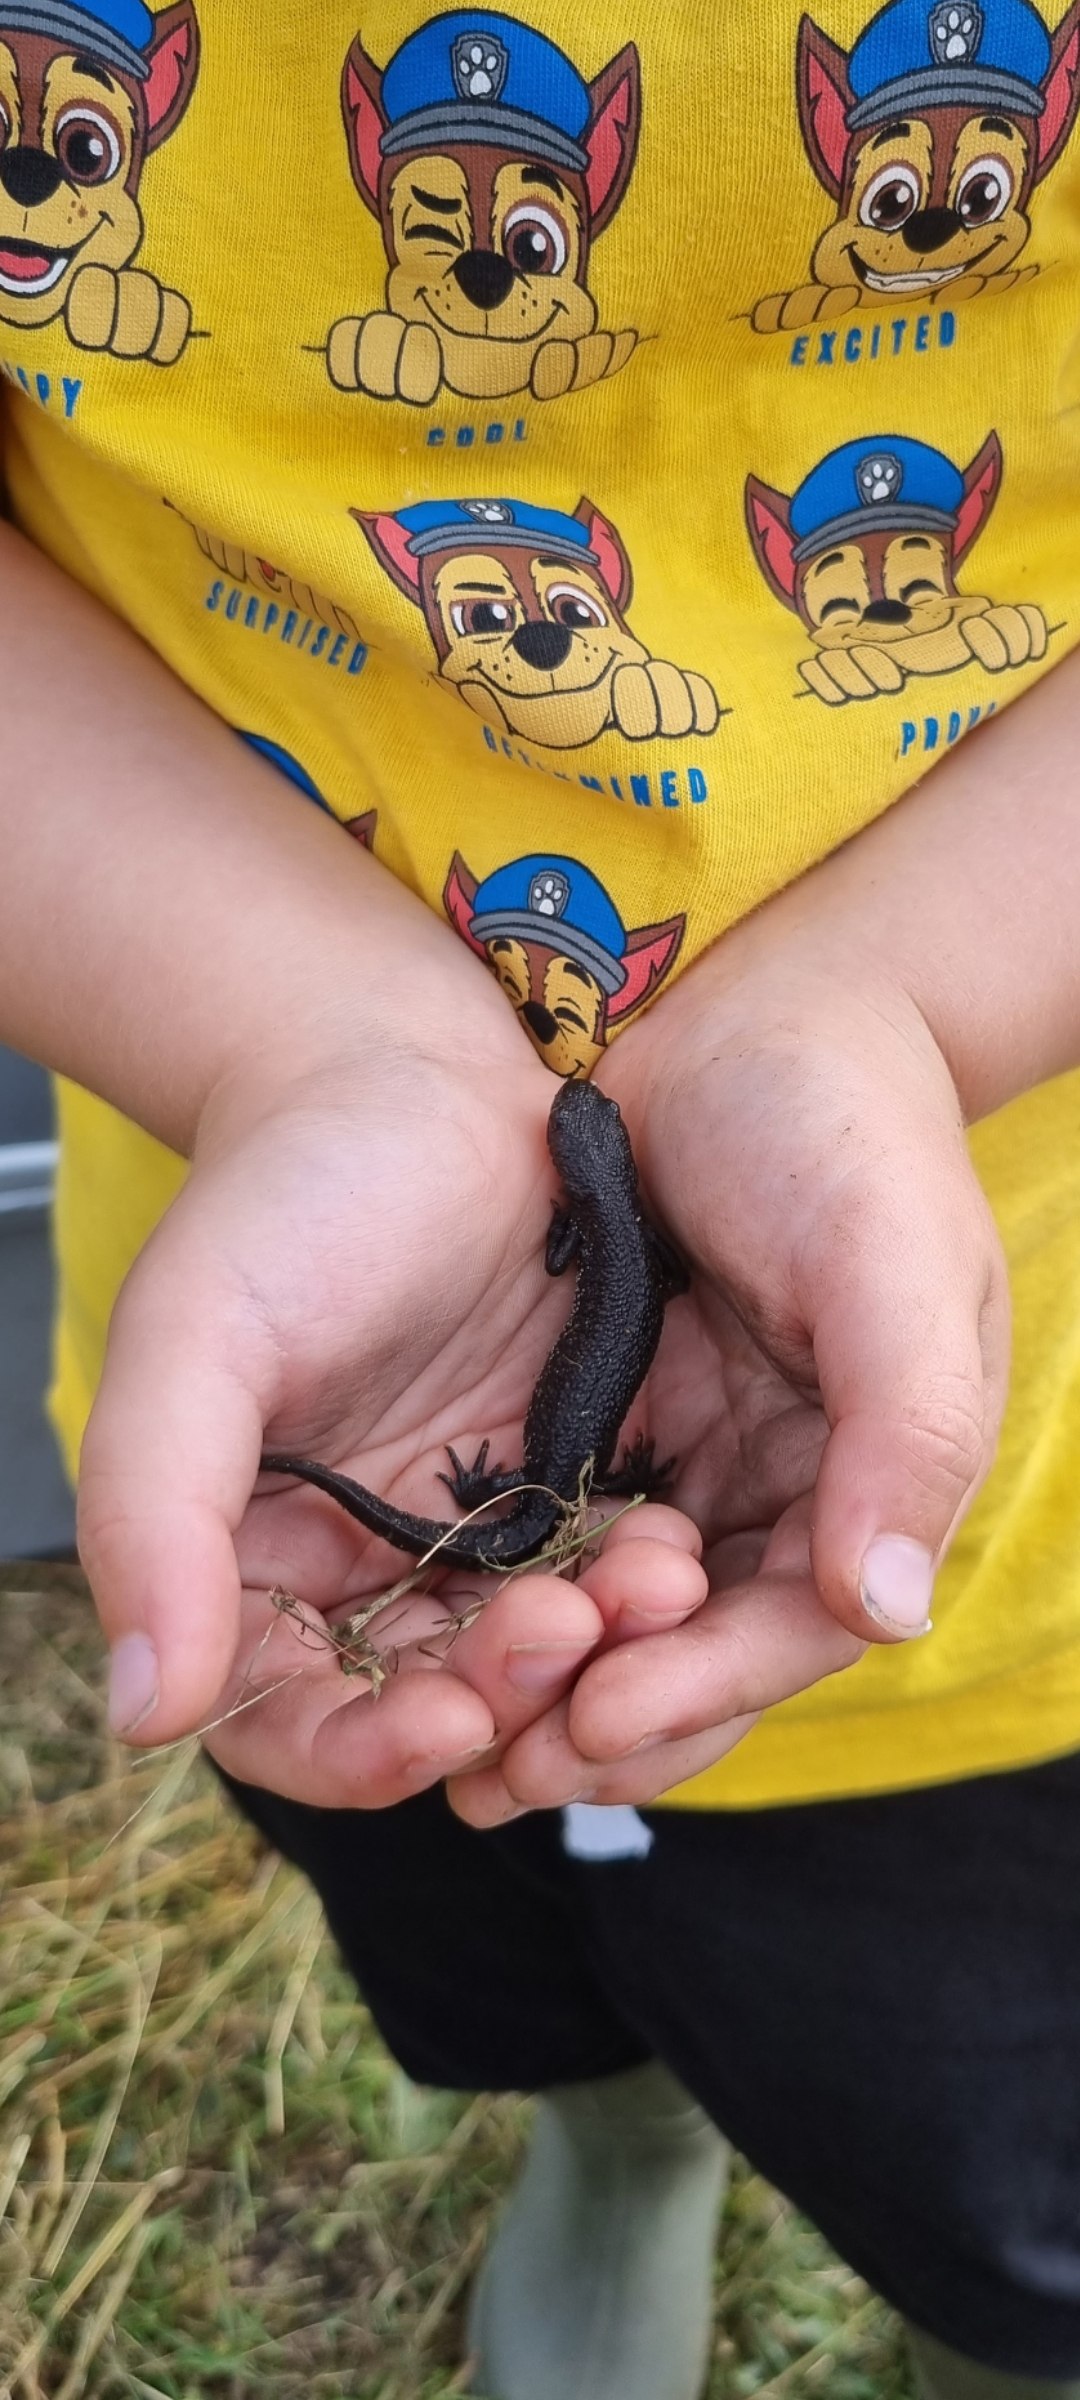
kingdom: Animalia
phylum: Chordata
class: Amphibia
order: Caudata
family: Salamandridae
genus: Triturus
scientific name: Triturus cristatus
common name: Stor vandsalamander
